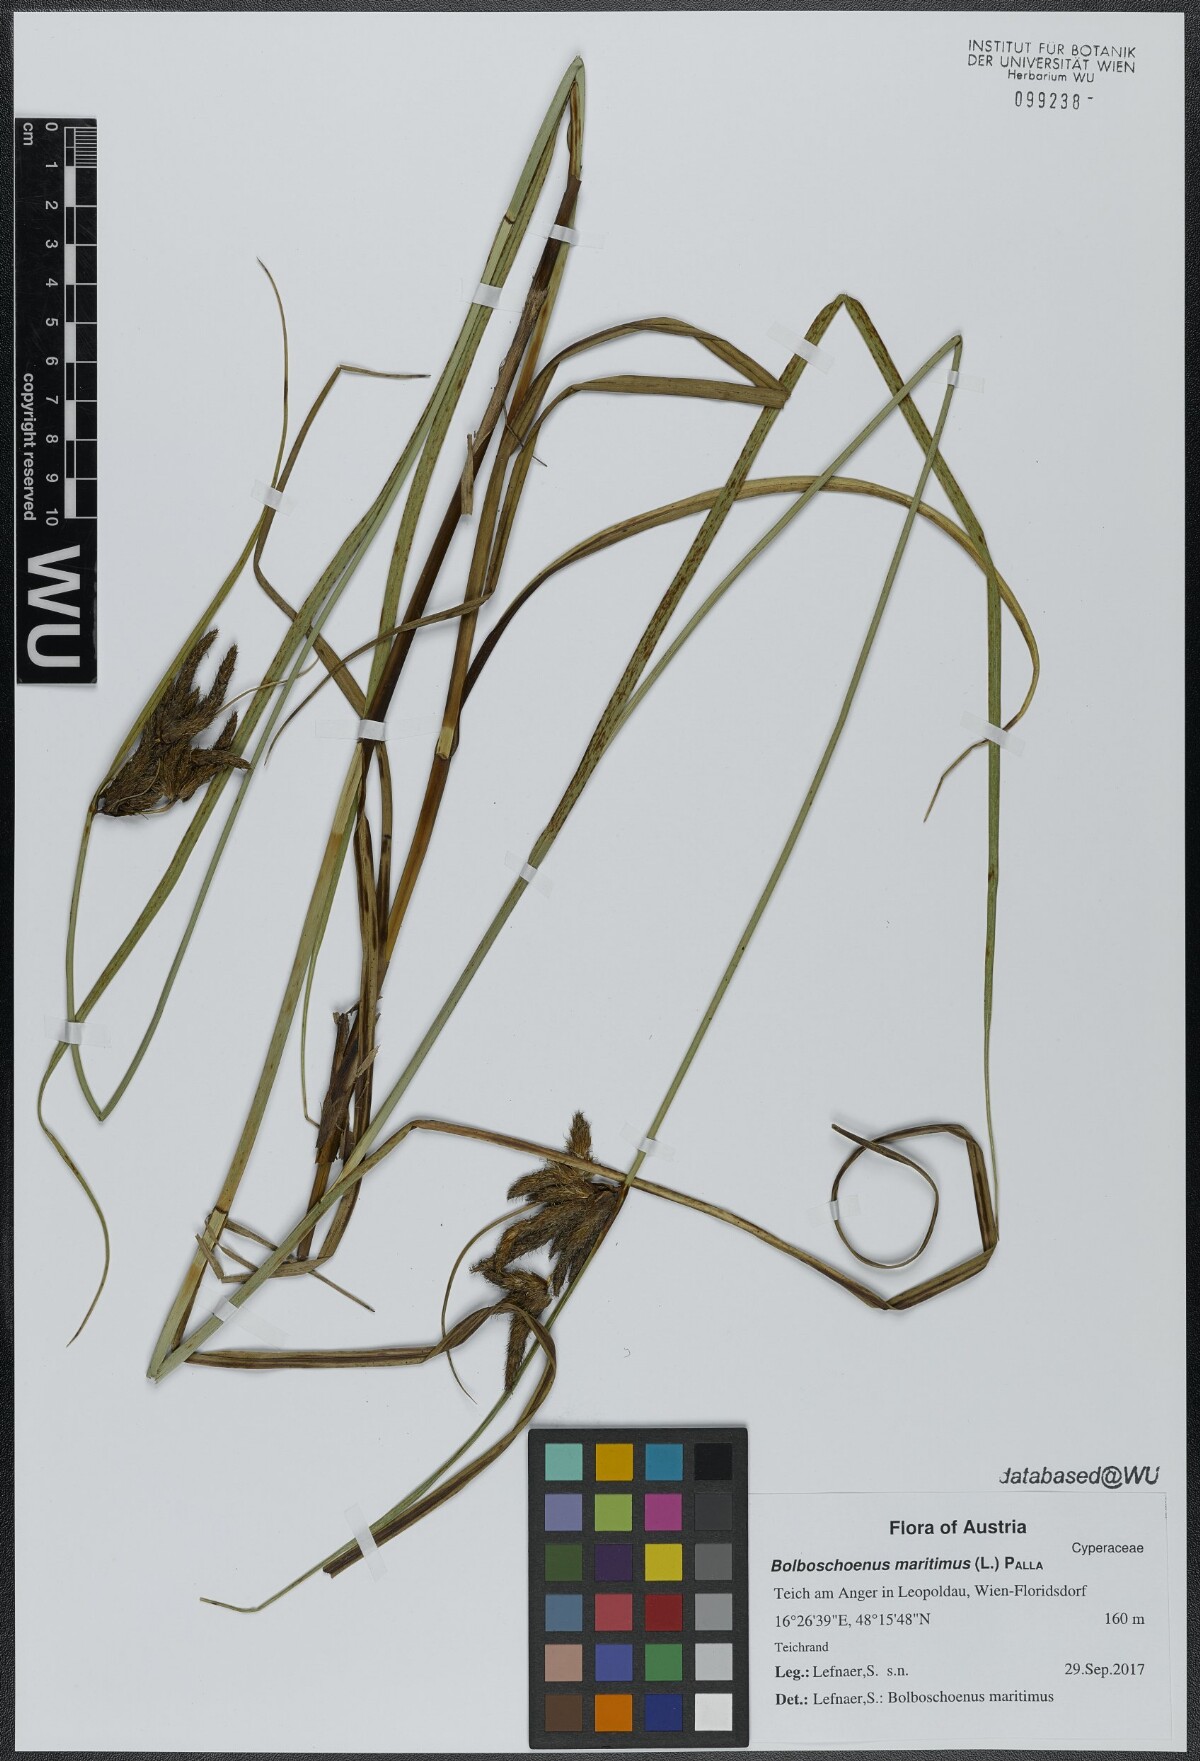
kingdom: Plantae
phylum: Tracheophyta
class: Liliopsida
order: Poales
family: Cyperaceae
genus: Bolboschoenus
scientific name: Bolboschoenus maritimus
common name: Sea club-rush
